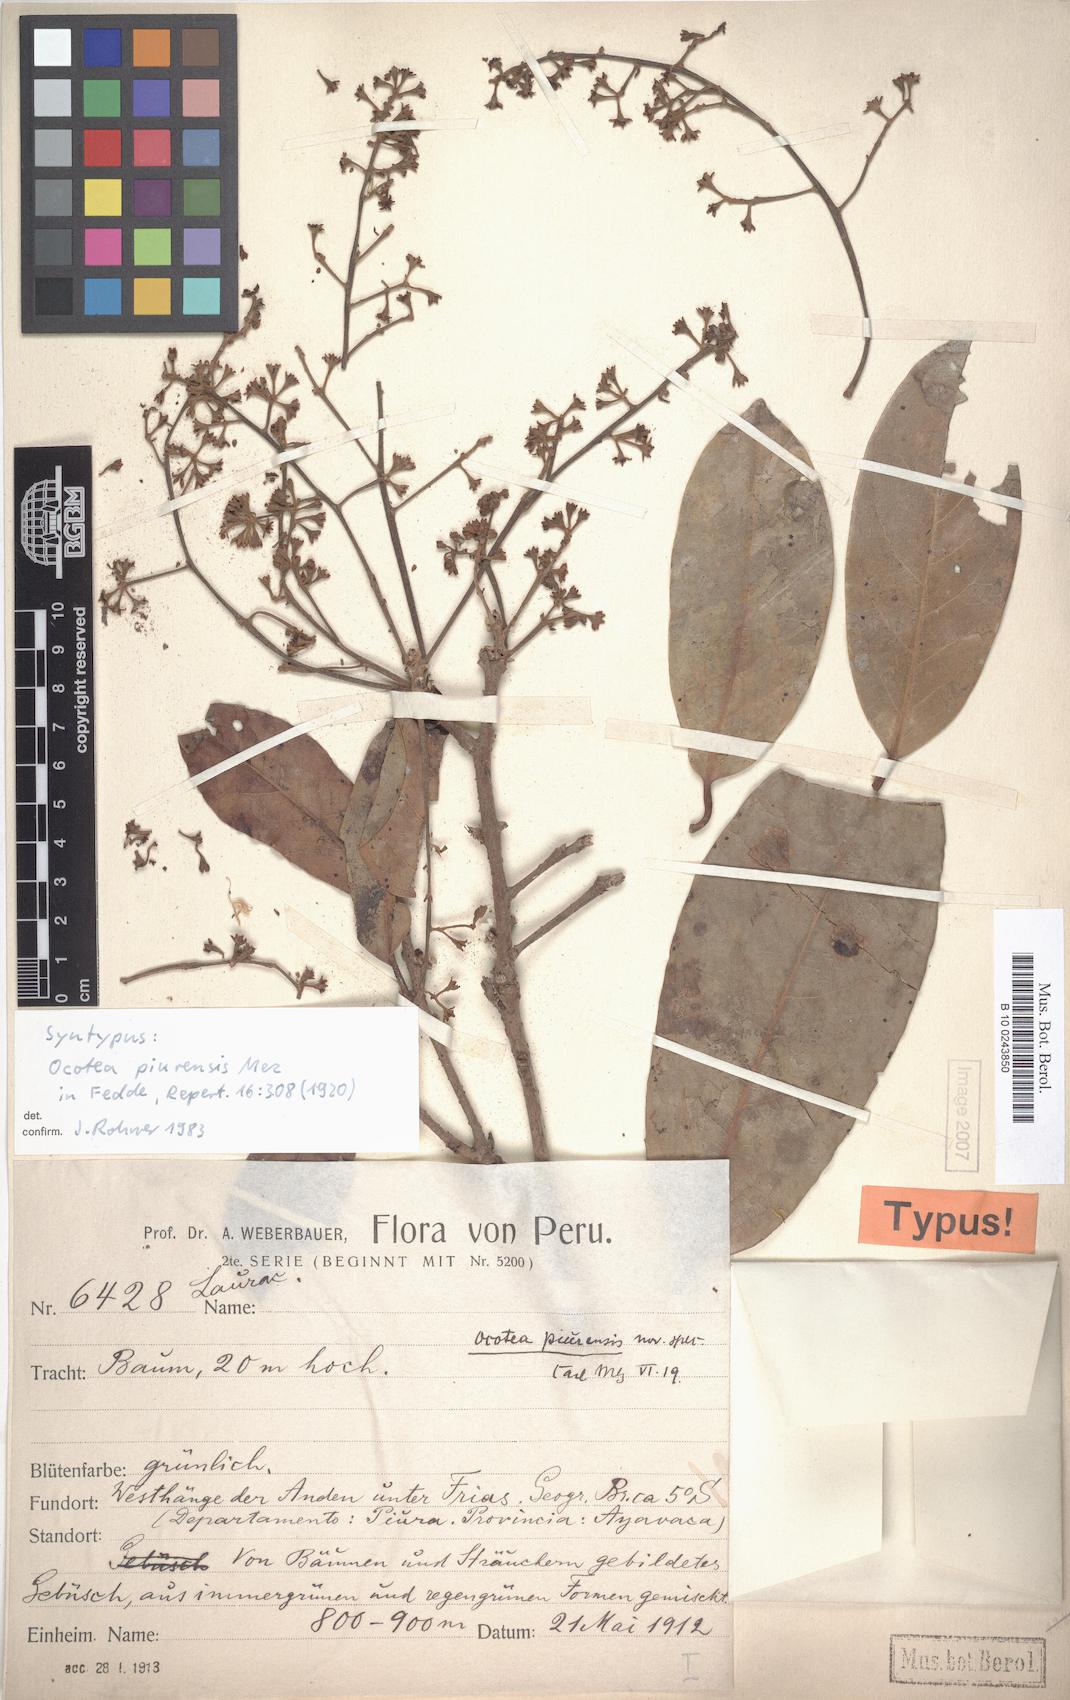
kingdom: Plantae
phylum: Tracheophyta
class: Magnoliopsida
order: Laurales
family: Lauraceae
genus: Ocotea
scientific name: Ocotea piurensis
